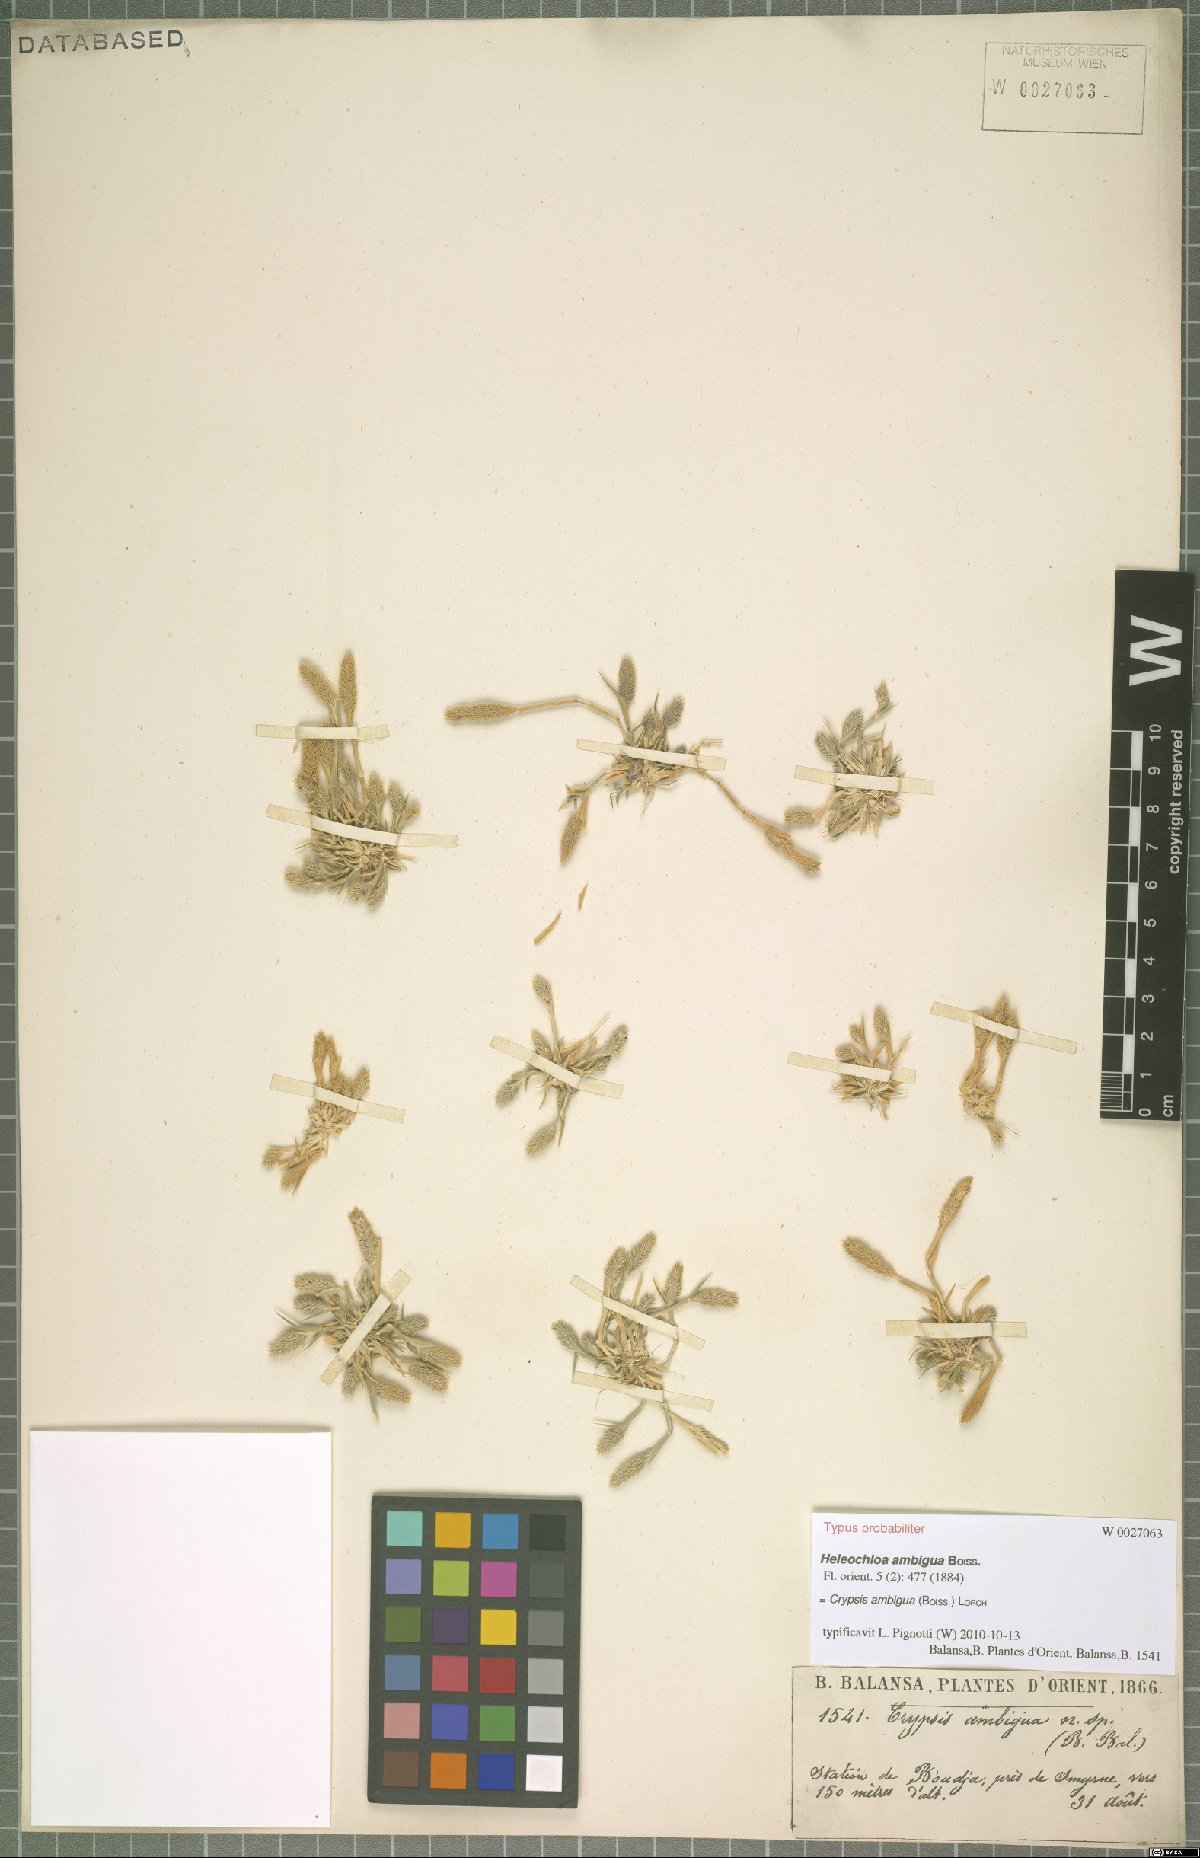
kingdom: Plantae
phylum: Tracheophyta
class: Liliopsida
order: Poales
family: Poaceae
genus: Sporobolus
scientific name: Sporobolus borszczowii
